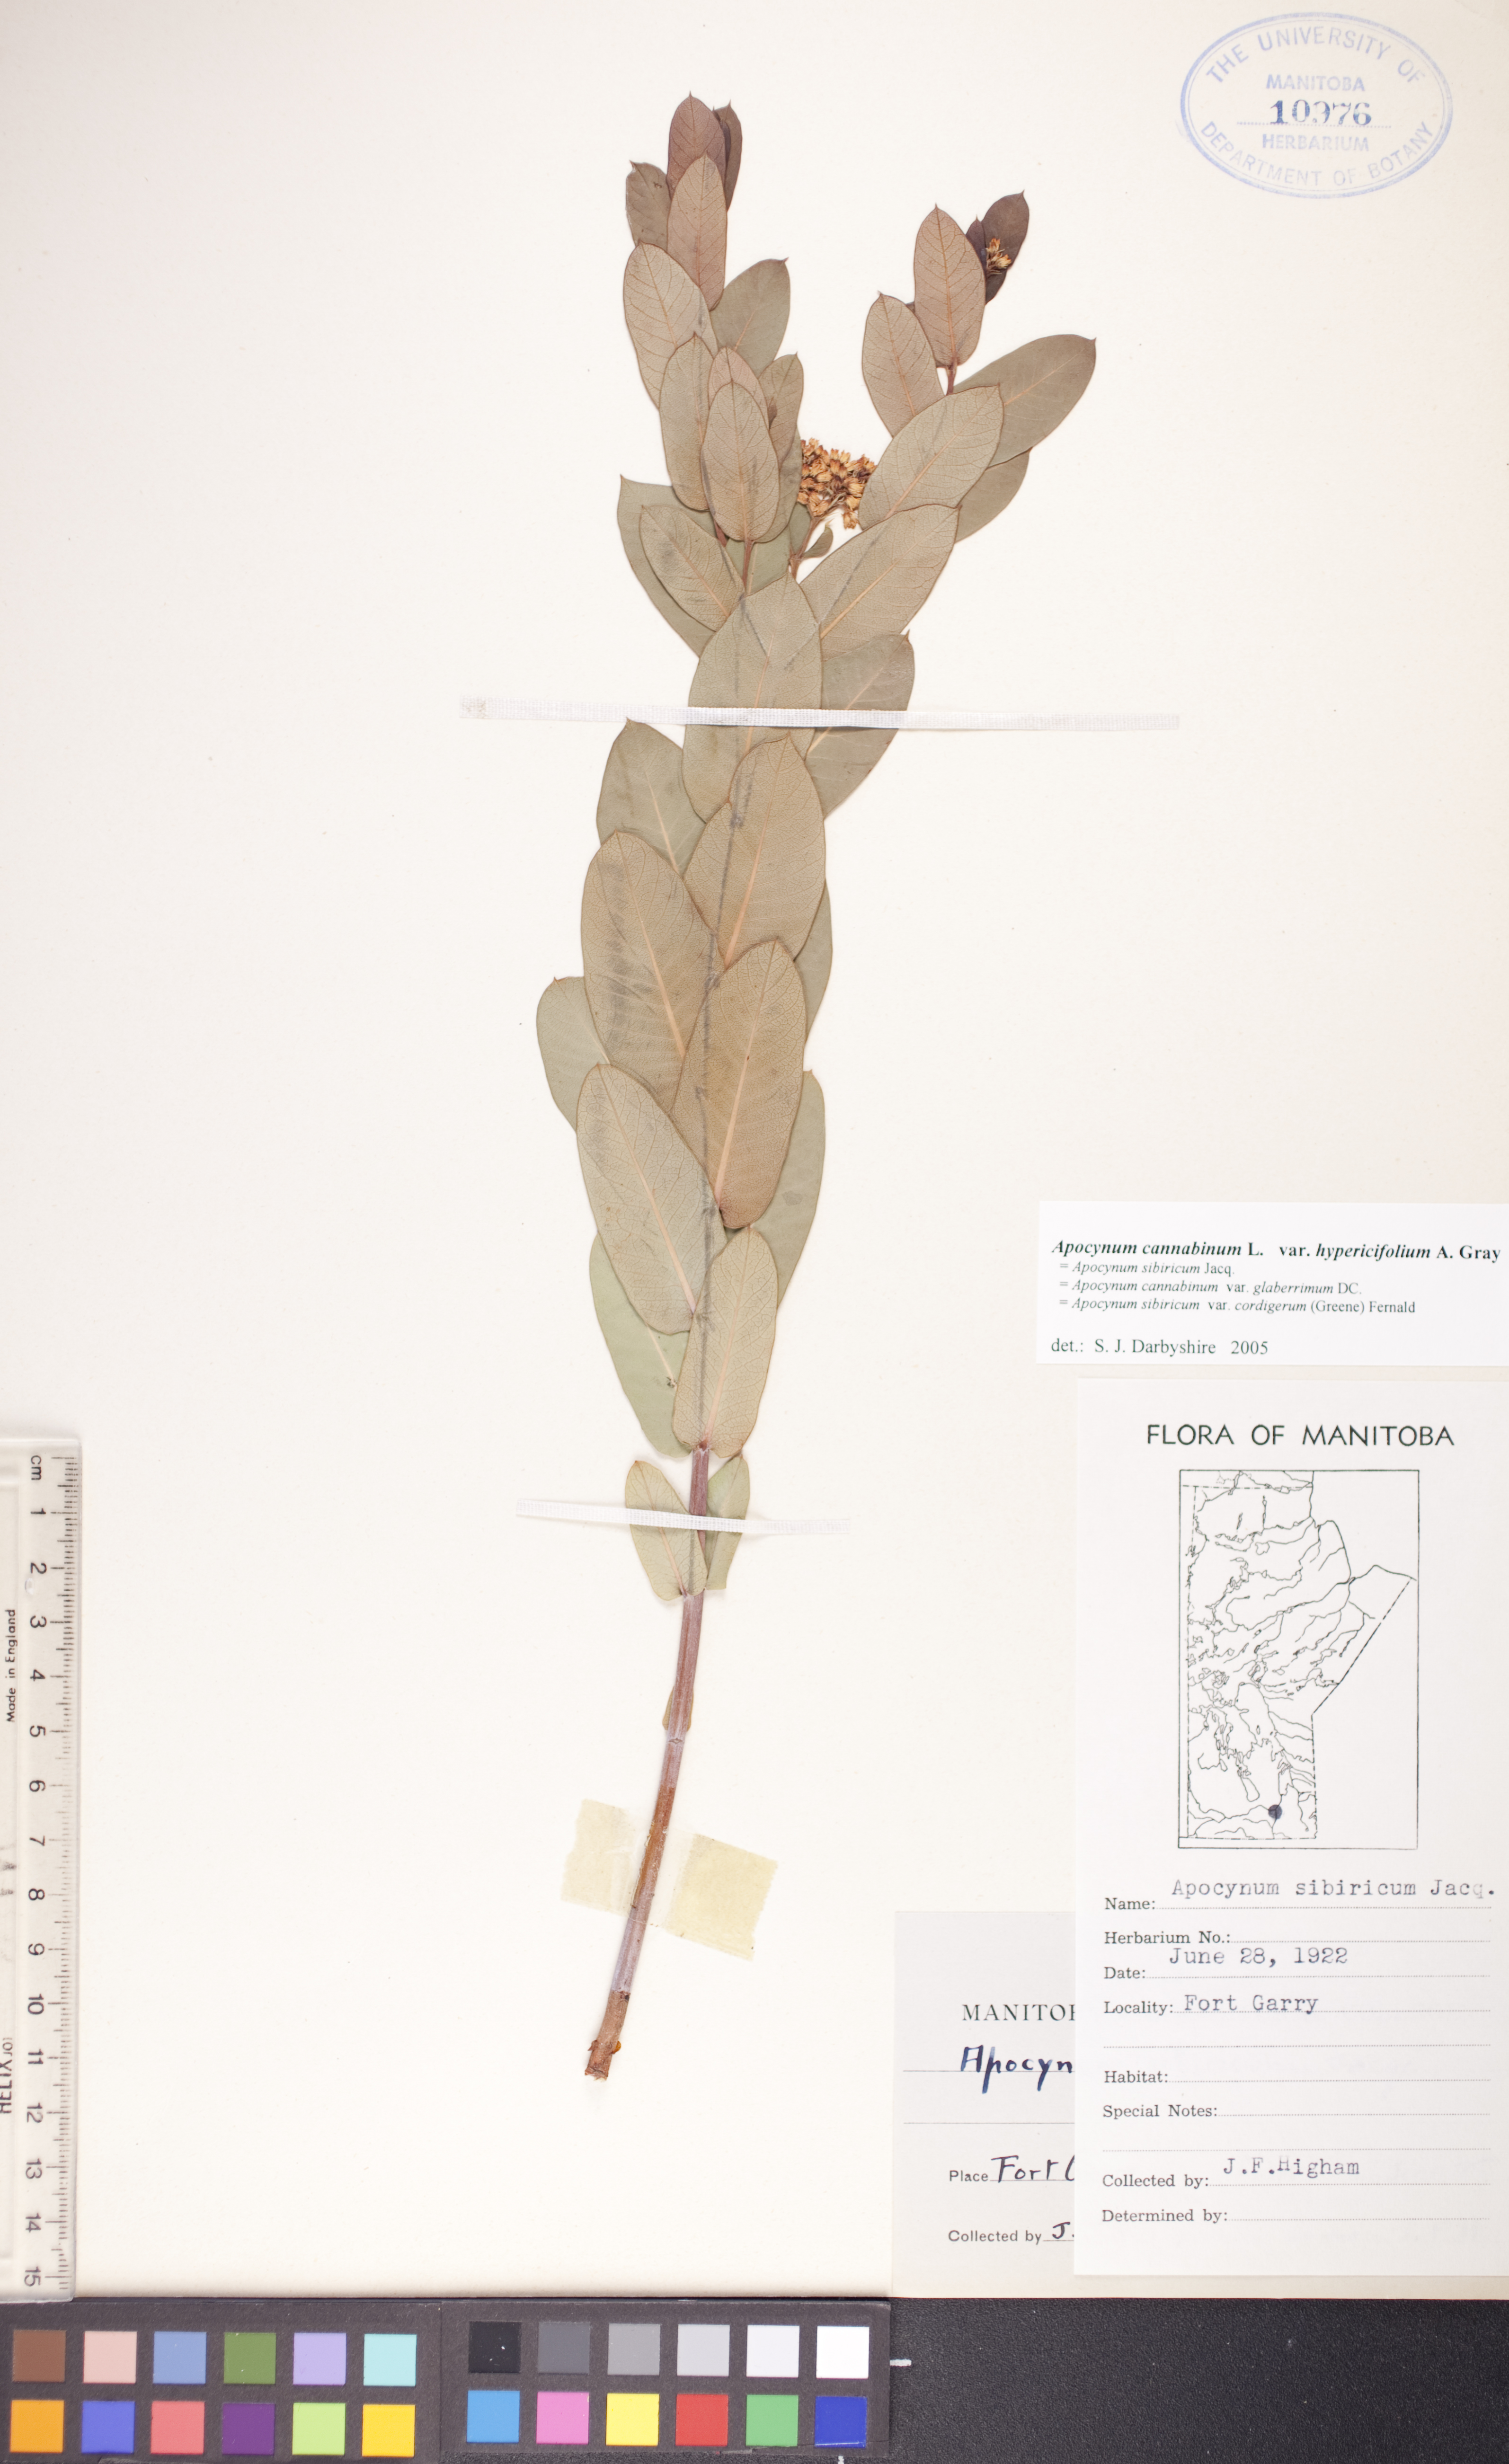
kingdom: Plantae
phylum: Tracheophyta
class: Magnoliopsida
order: Gentianales
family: Apocynaceae
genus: Apocynum
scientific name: Apocynum cannabinum
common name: Hemp dogbane
